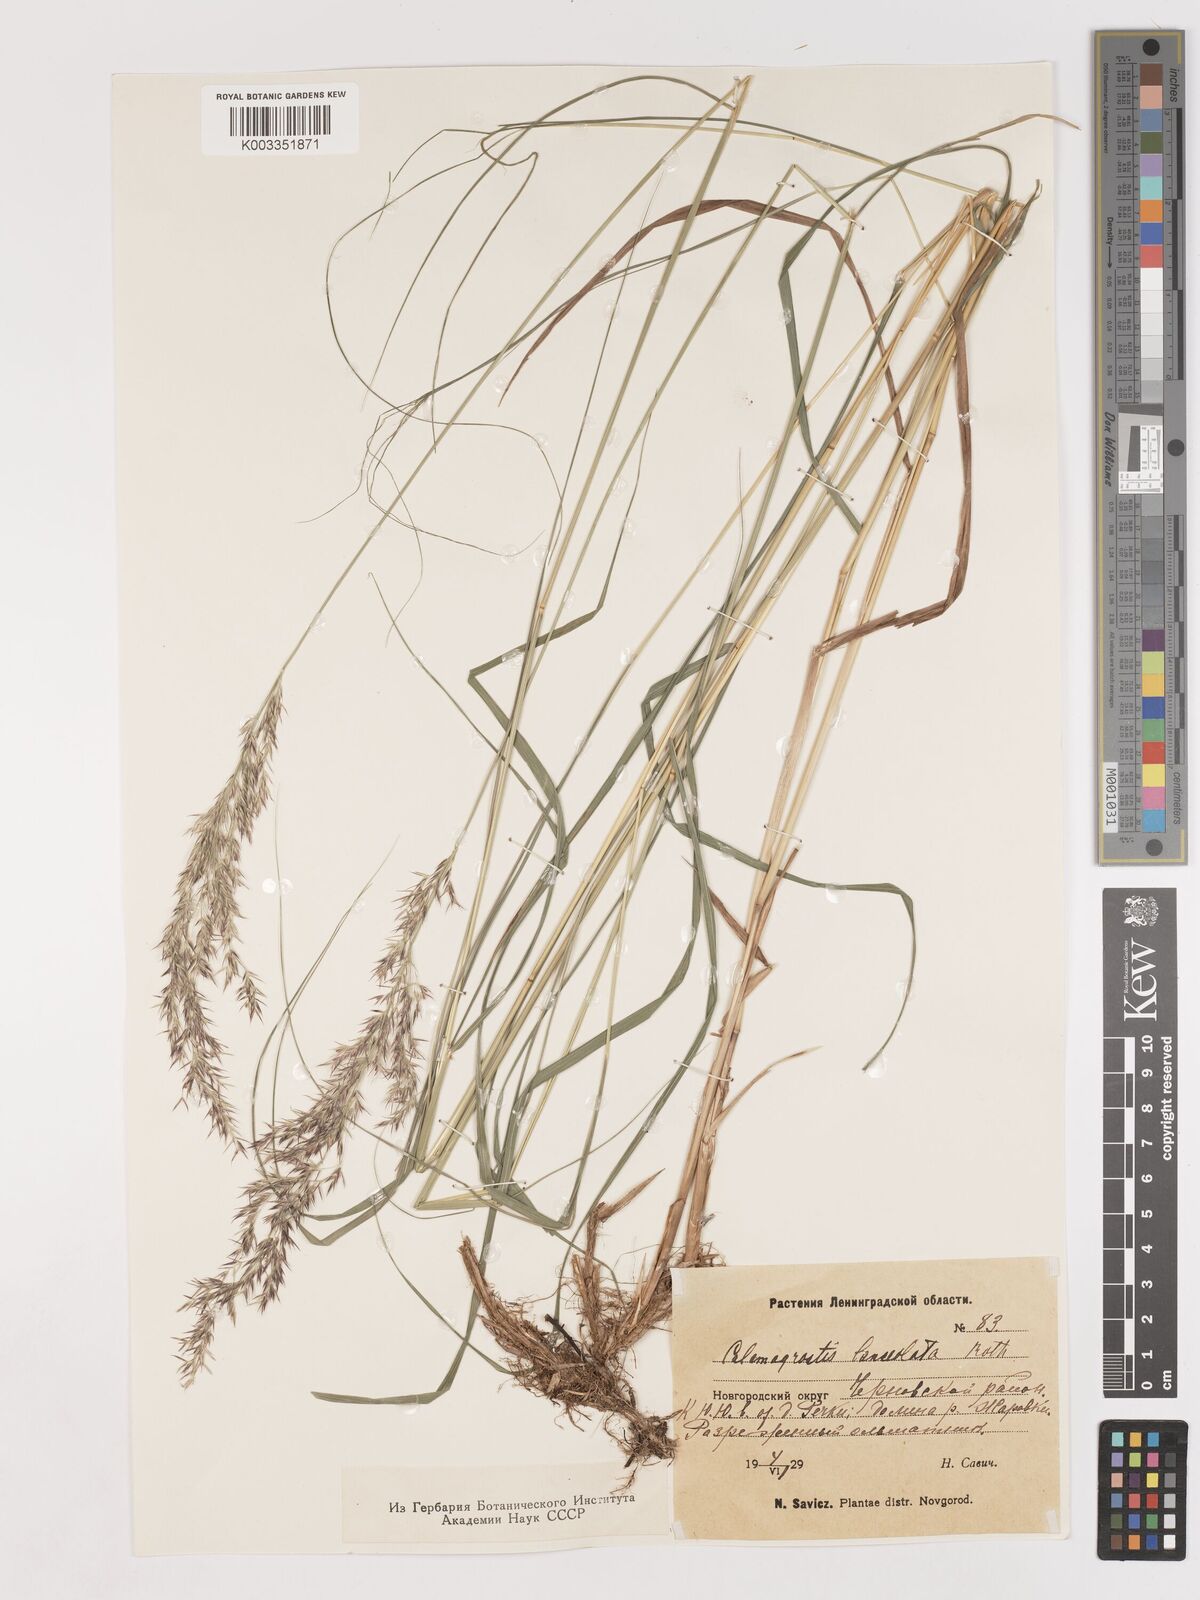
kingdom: Plantae
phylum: Tracheophyta
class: Liliopsida
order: Poales
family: Poaceae
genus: Calamagrostis
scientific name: Calamagrostis canescens
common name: Purple small-reed
